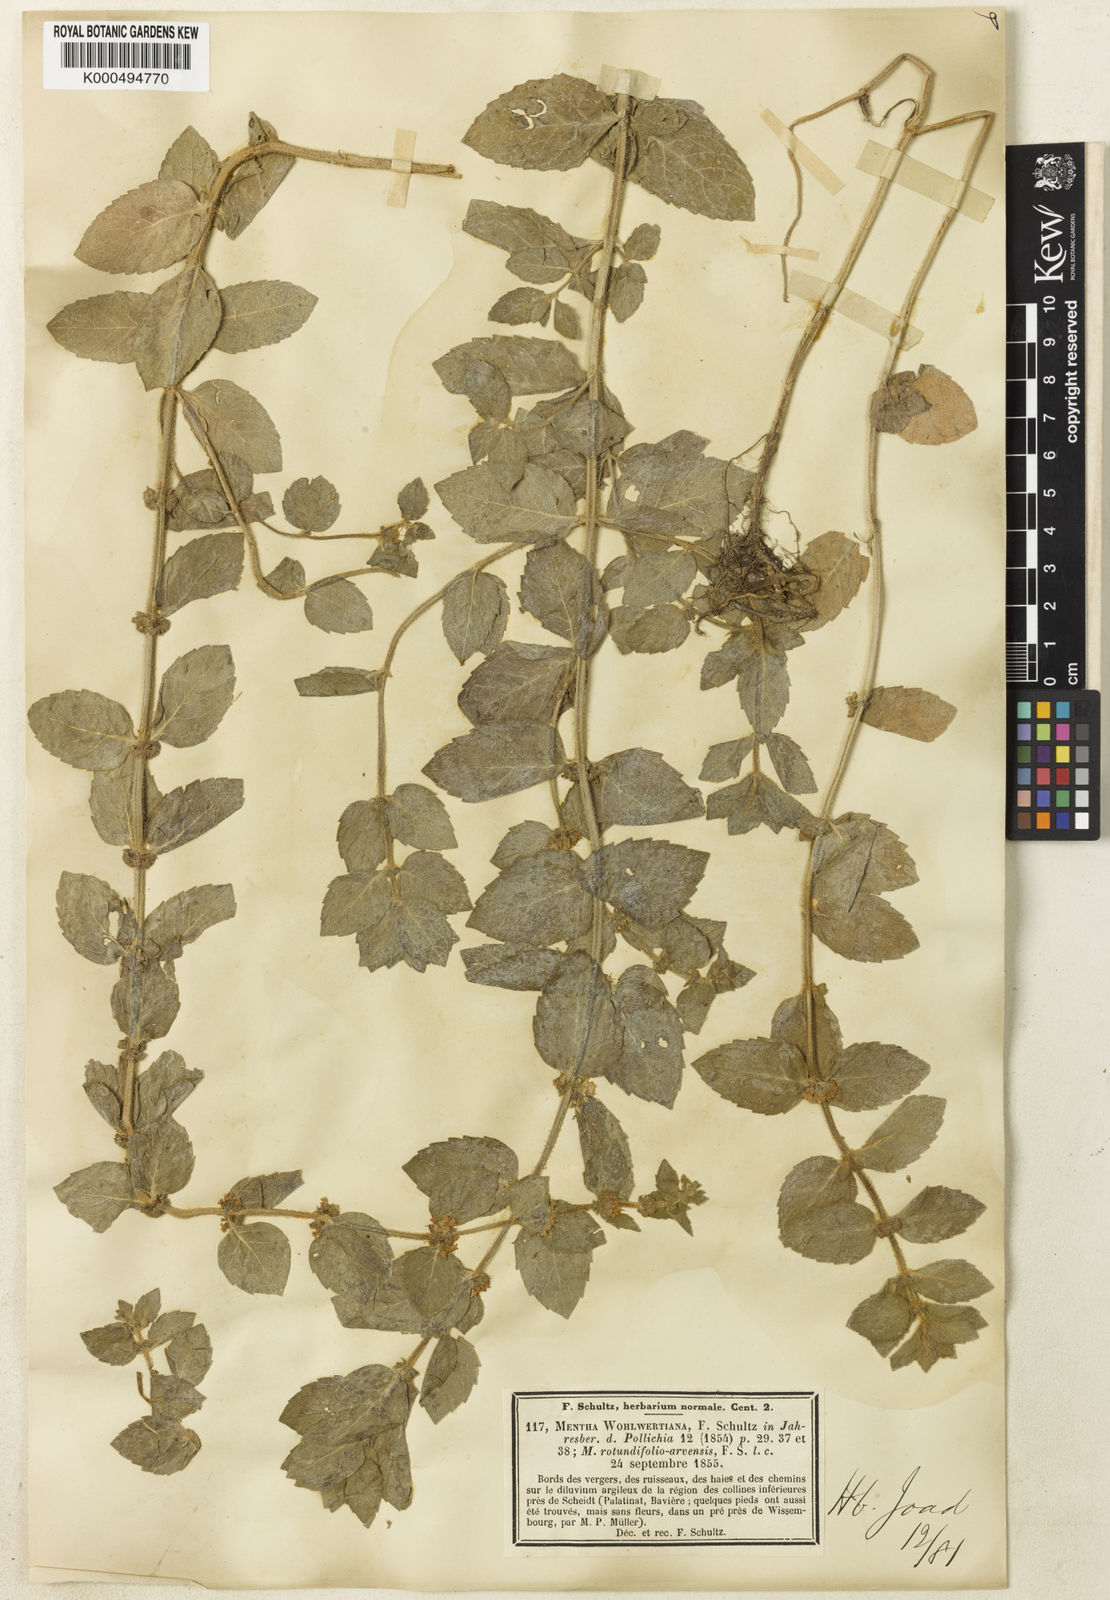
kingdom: Plantae
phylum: Tracheophyta
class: Magnoliopsida
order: Lamiales
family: Lamiaceae
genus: Mentha
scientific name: Mentha carinthiaca
